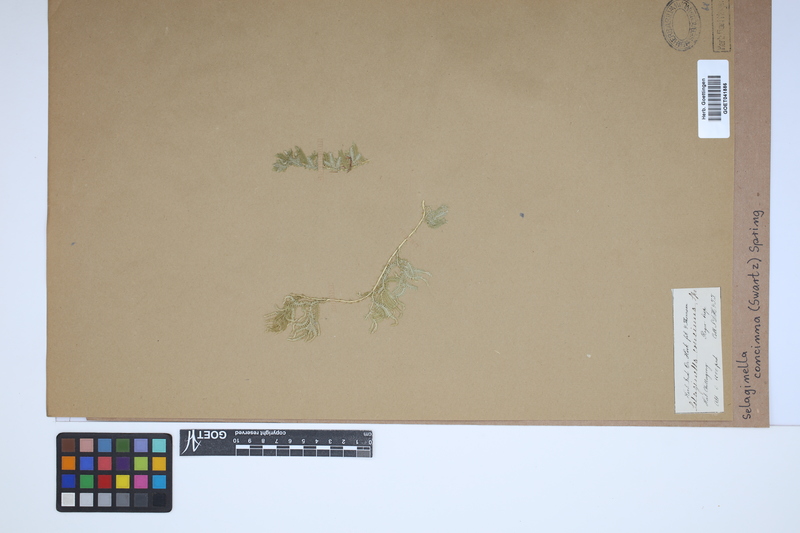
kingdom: Plantae
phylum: Tracheophyta
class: Lycopodiopsida
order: Selaginellales
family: Selaginellaceae
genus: Selaginella
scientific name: Selaginella concinna
